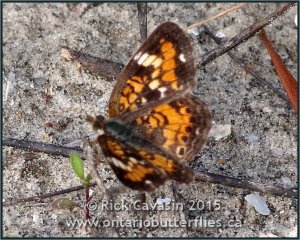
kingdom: Animalia
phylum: Arthropoda
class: Insecta
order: Lepidoptera
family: Nymphalidae
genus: Phyciodes
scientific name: Phyciodes phaon
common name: Phaon Crescent
